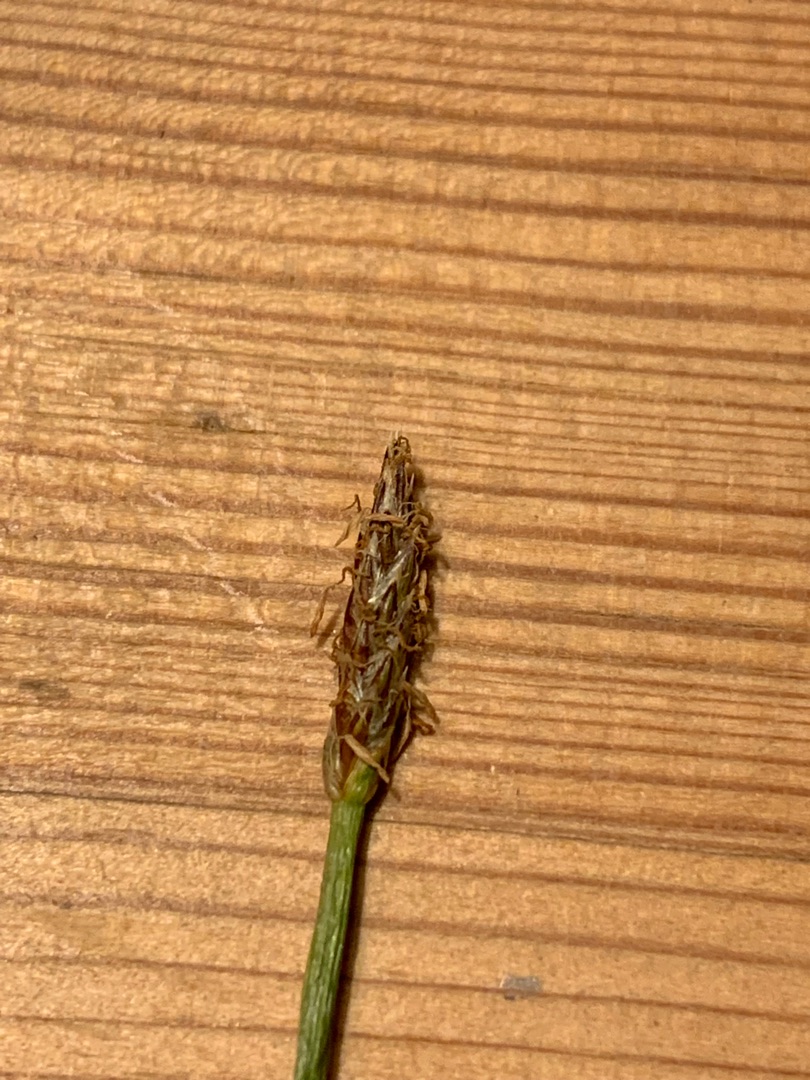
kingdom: Plantae
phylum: Tracheophyta
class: Liliopsida
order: Poales
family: Cyperaceae
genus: Eleocharis
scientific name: Eleocharis palustris
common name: Almindelig sumpstrå
